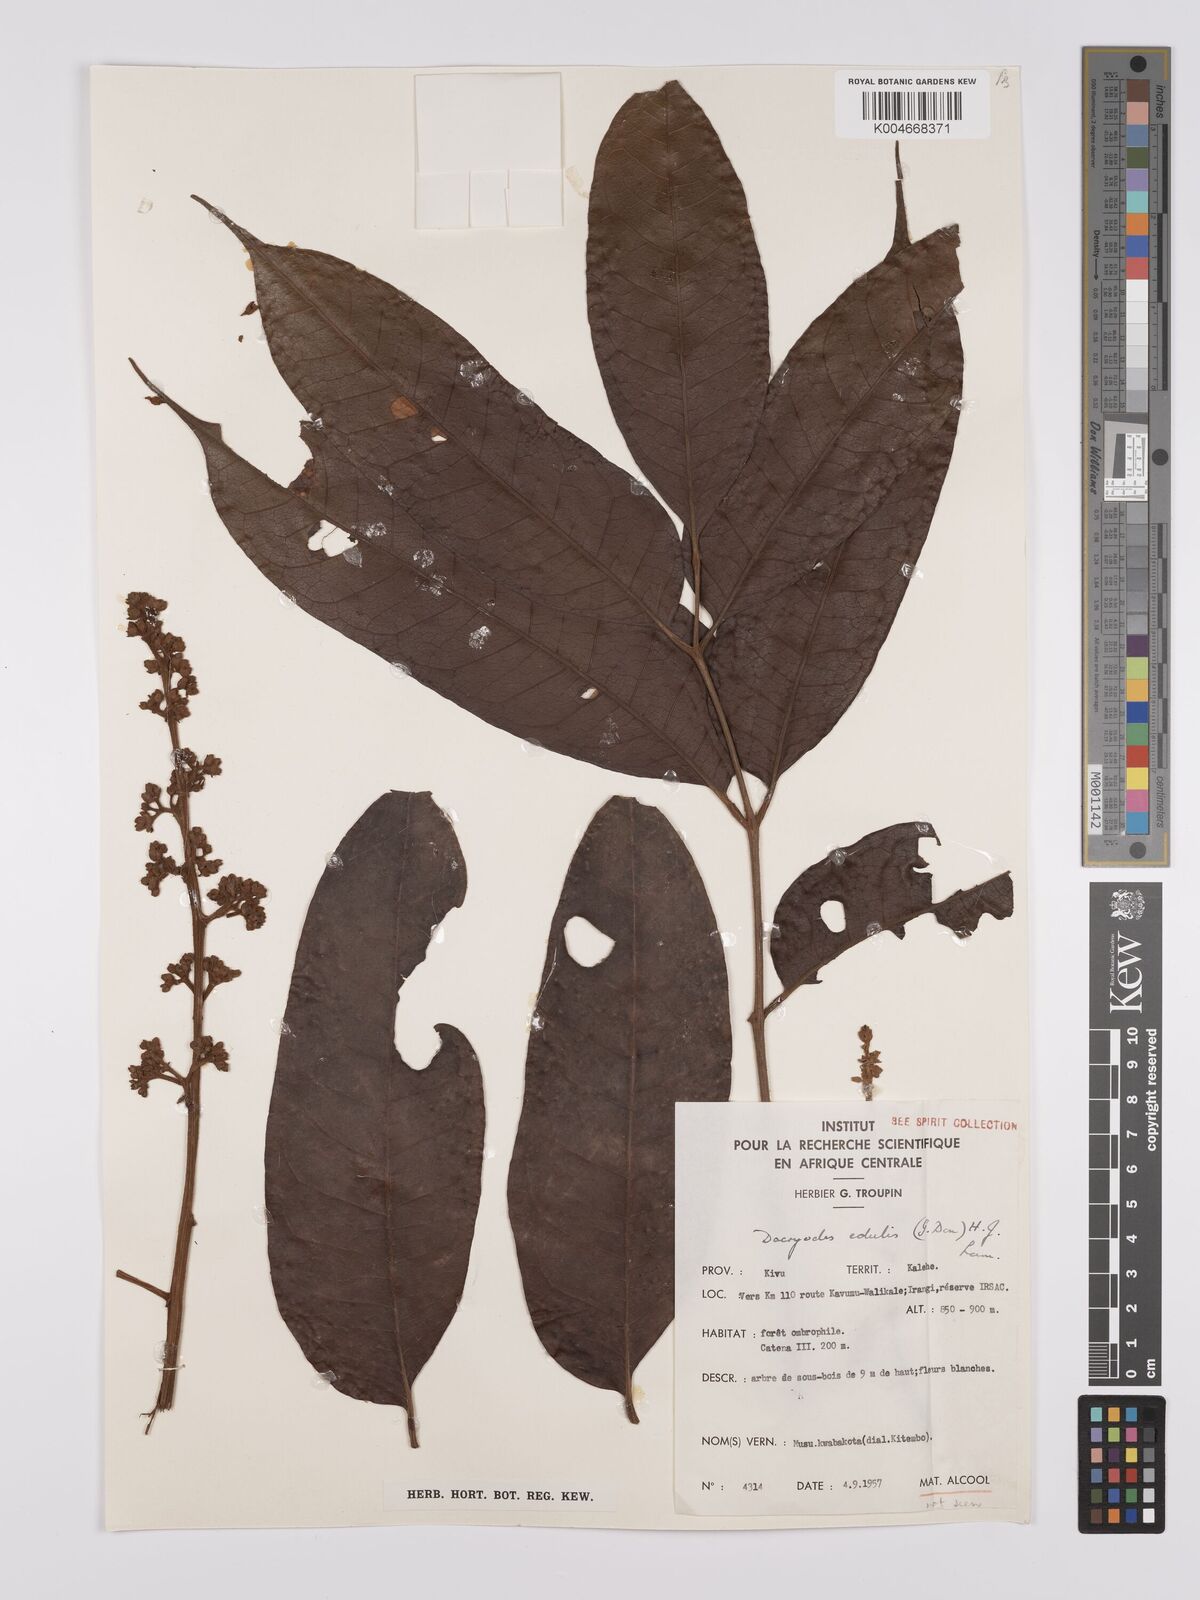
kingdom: Plantae
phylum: Tracheophyta
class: Magnoliopsida
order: Sapindales
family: Burseraceae
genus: Pachylobus
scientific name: Pachylobus edulis
